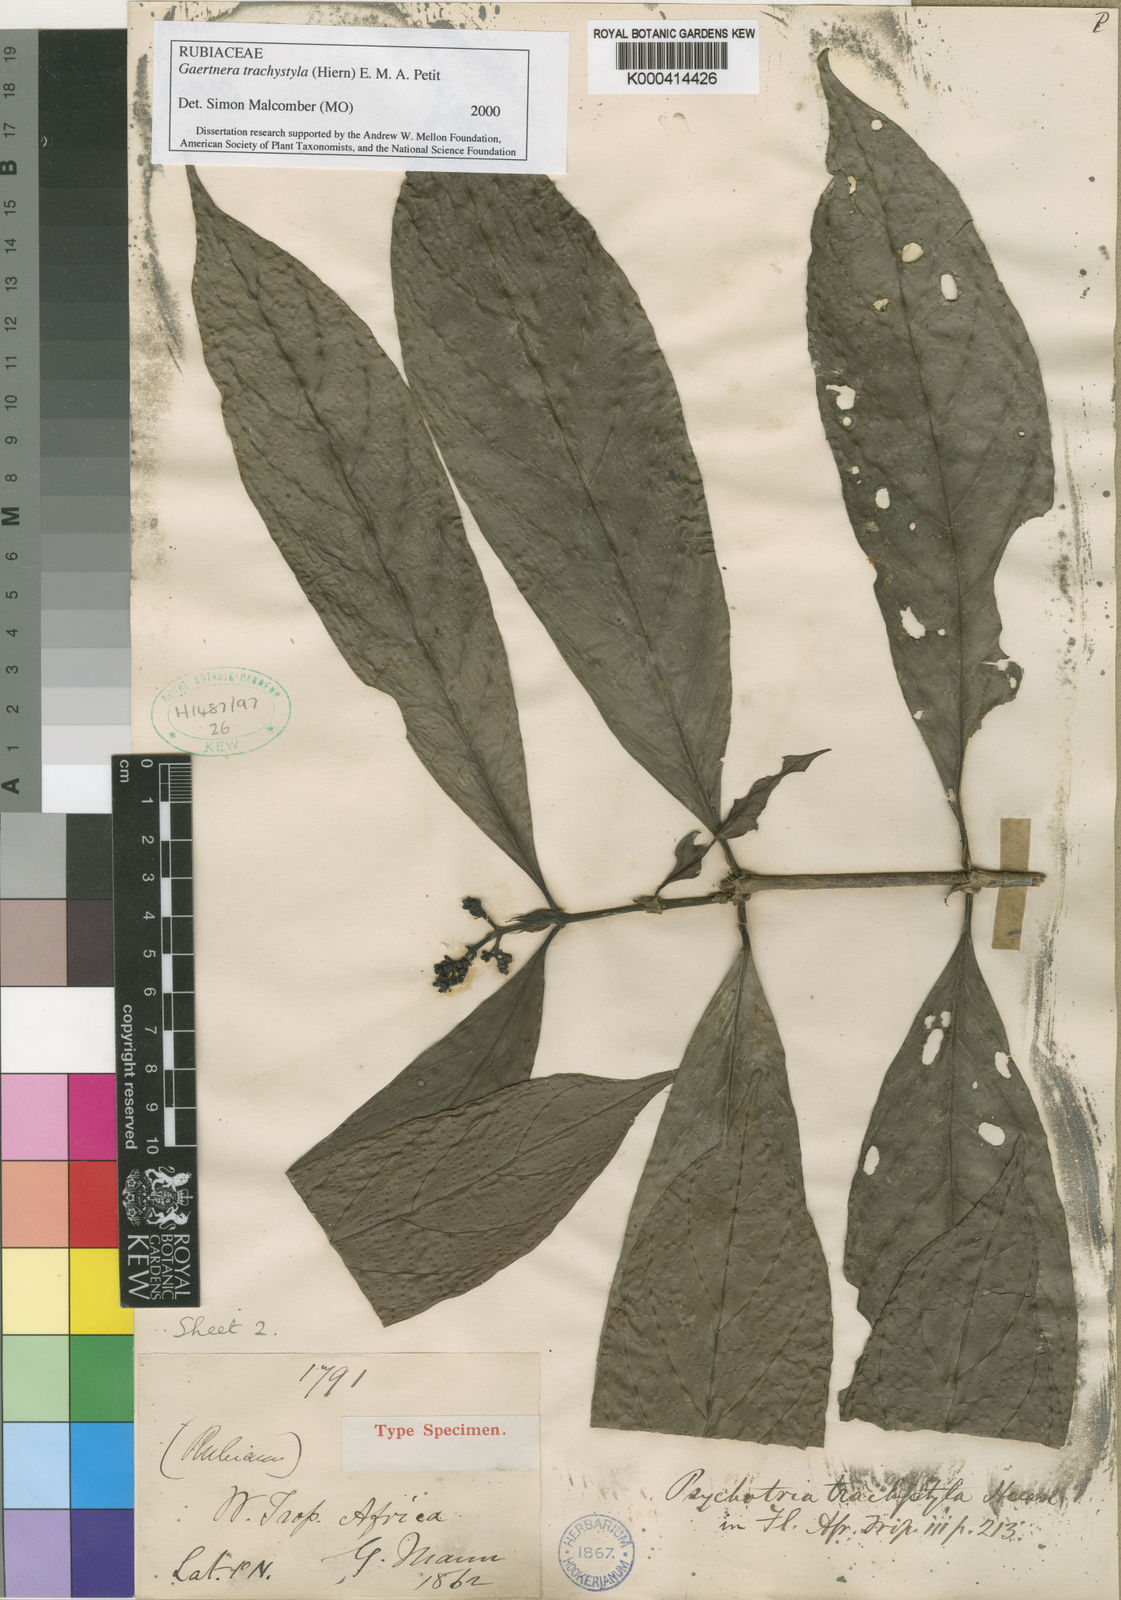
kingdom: Plantae
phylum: Tracheophyta
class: Magnoliopsida
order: Gentianales
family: Rubiaceae
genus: Gaertnera
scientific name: Gaertnera trachystyla
